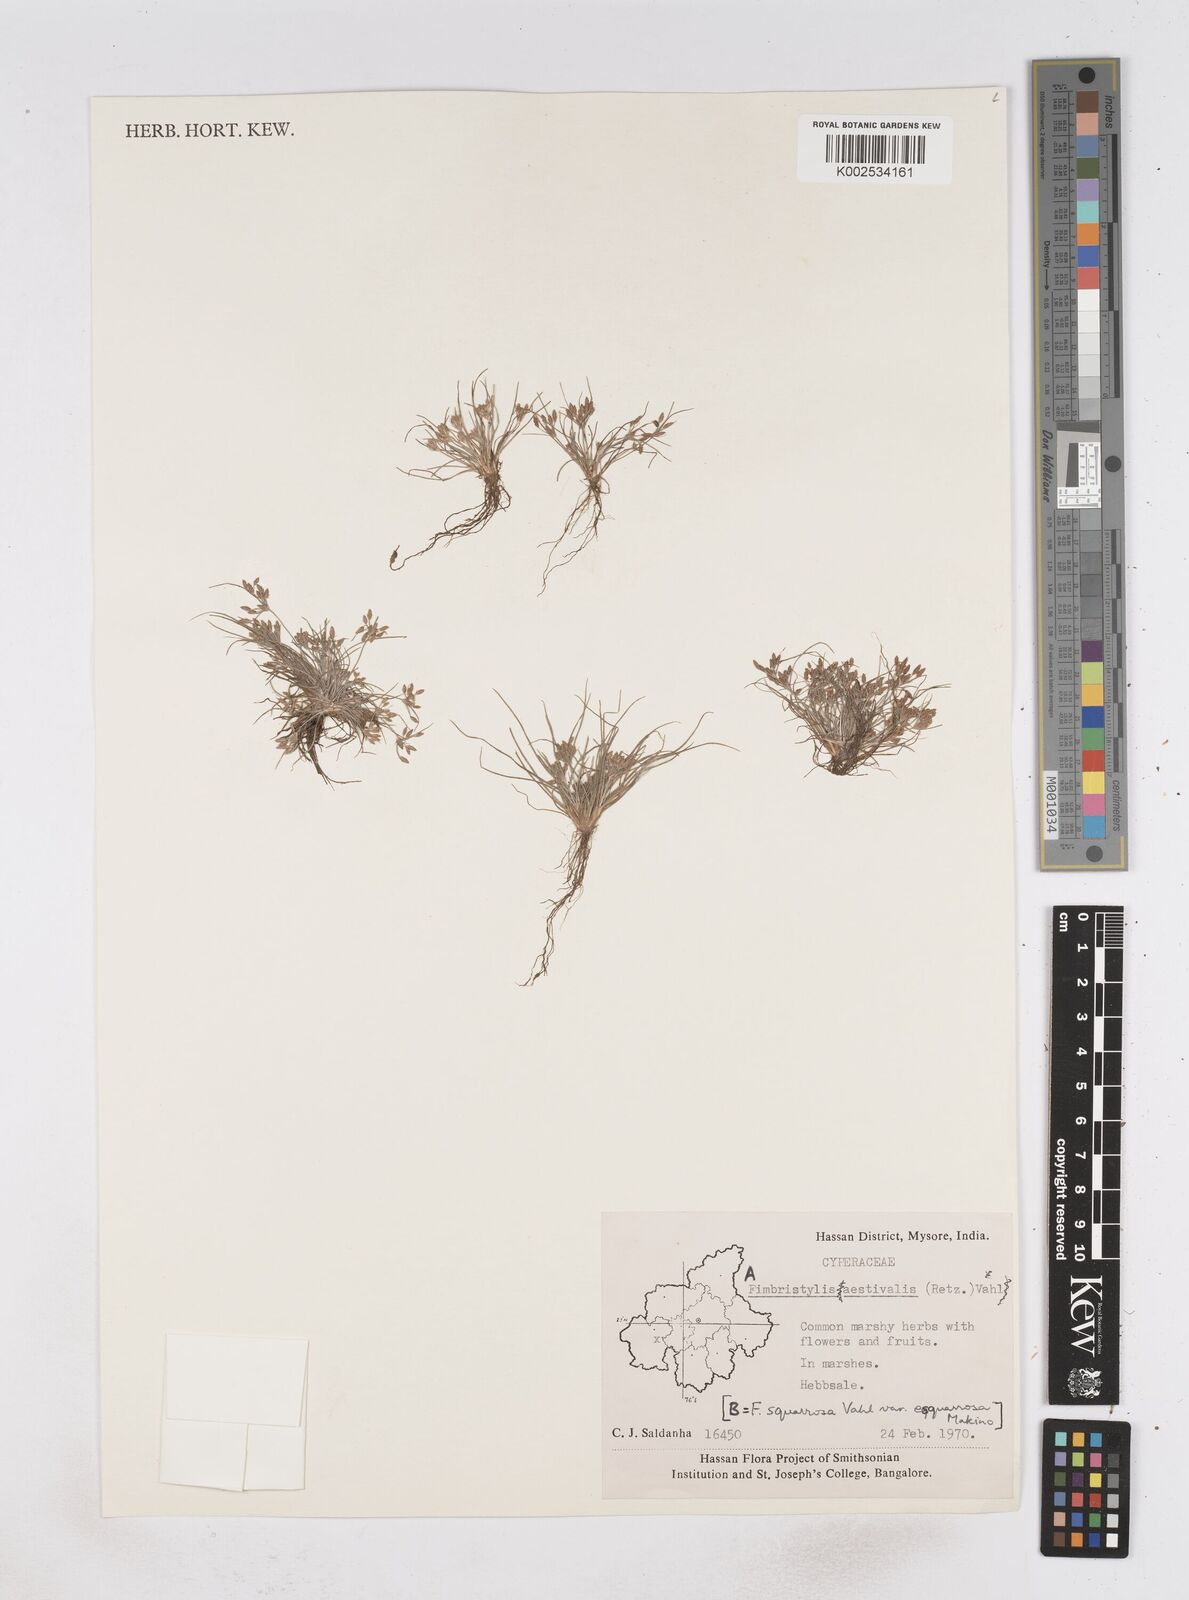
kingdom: Plantae
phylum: Tracheophyta
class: Liliopsida
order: Poales
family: Cyperaceae
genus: Fimbristylis
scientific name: Fimbristylis aestivalis
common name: Summer fimbry
